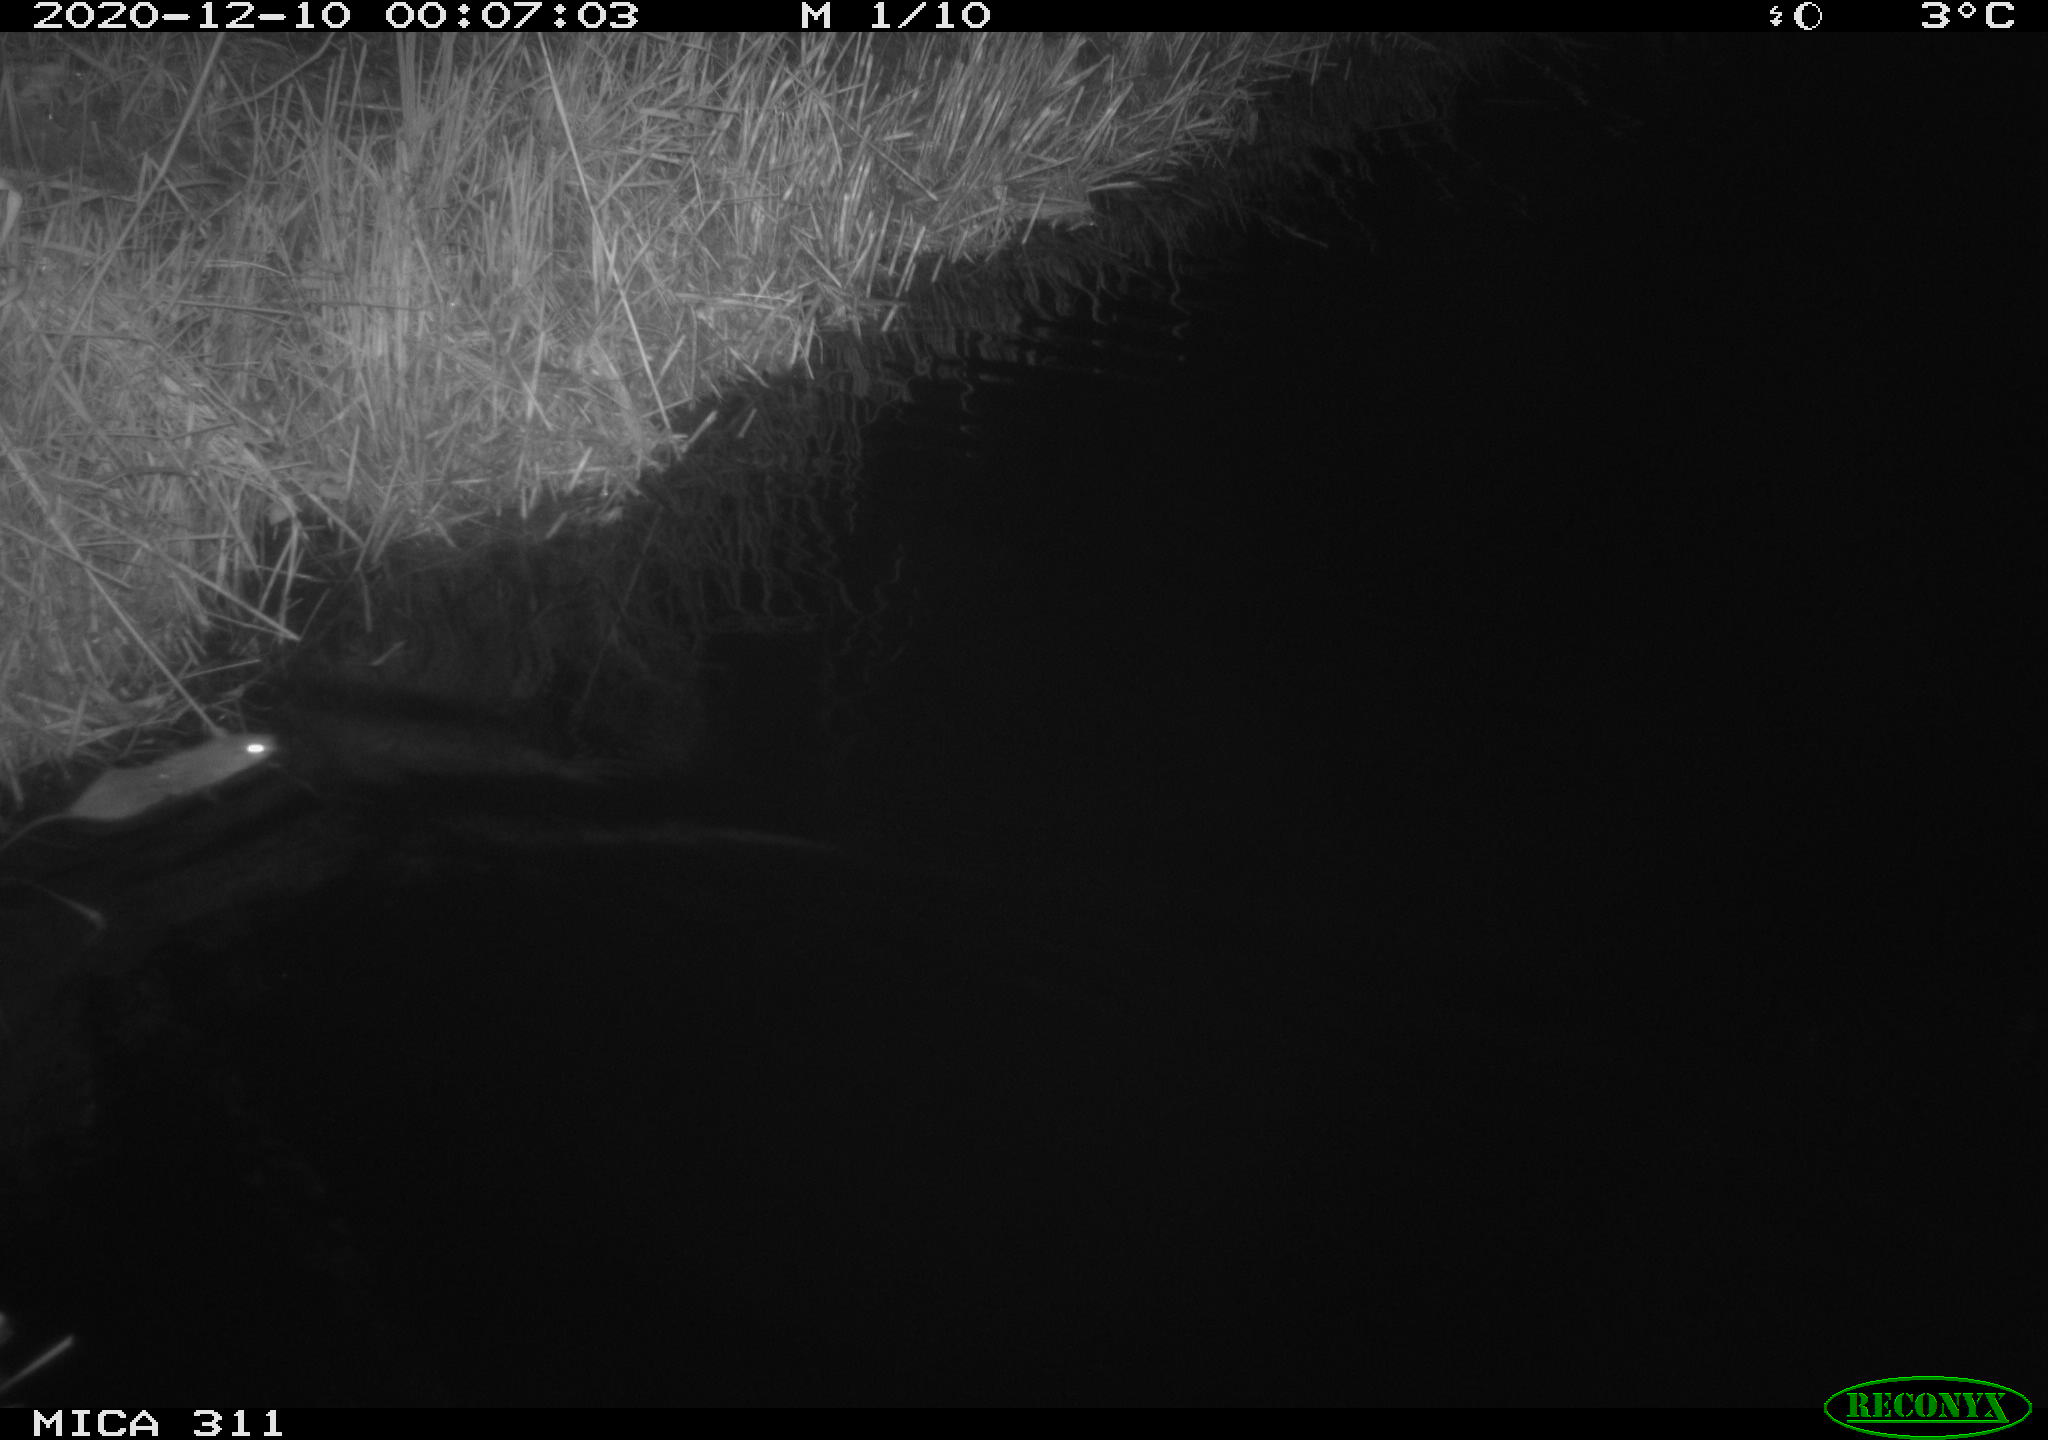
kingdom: Animalia
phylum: Chordata
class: Mammalia
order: Rodentia
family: Muridae
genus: Rattus
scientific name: Rattus norvegicus
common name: Brown rat
